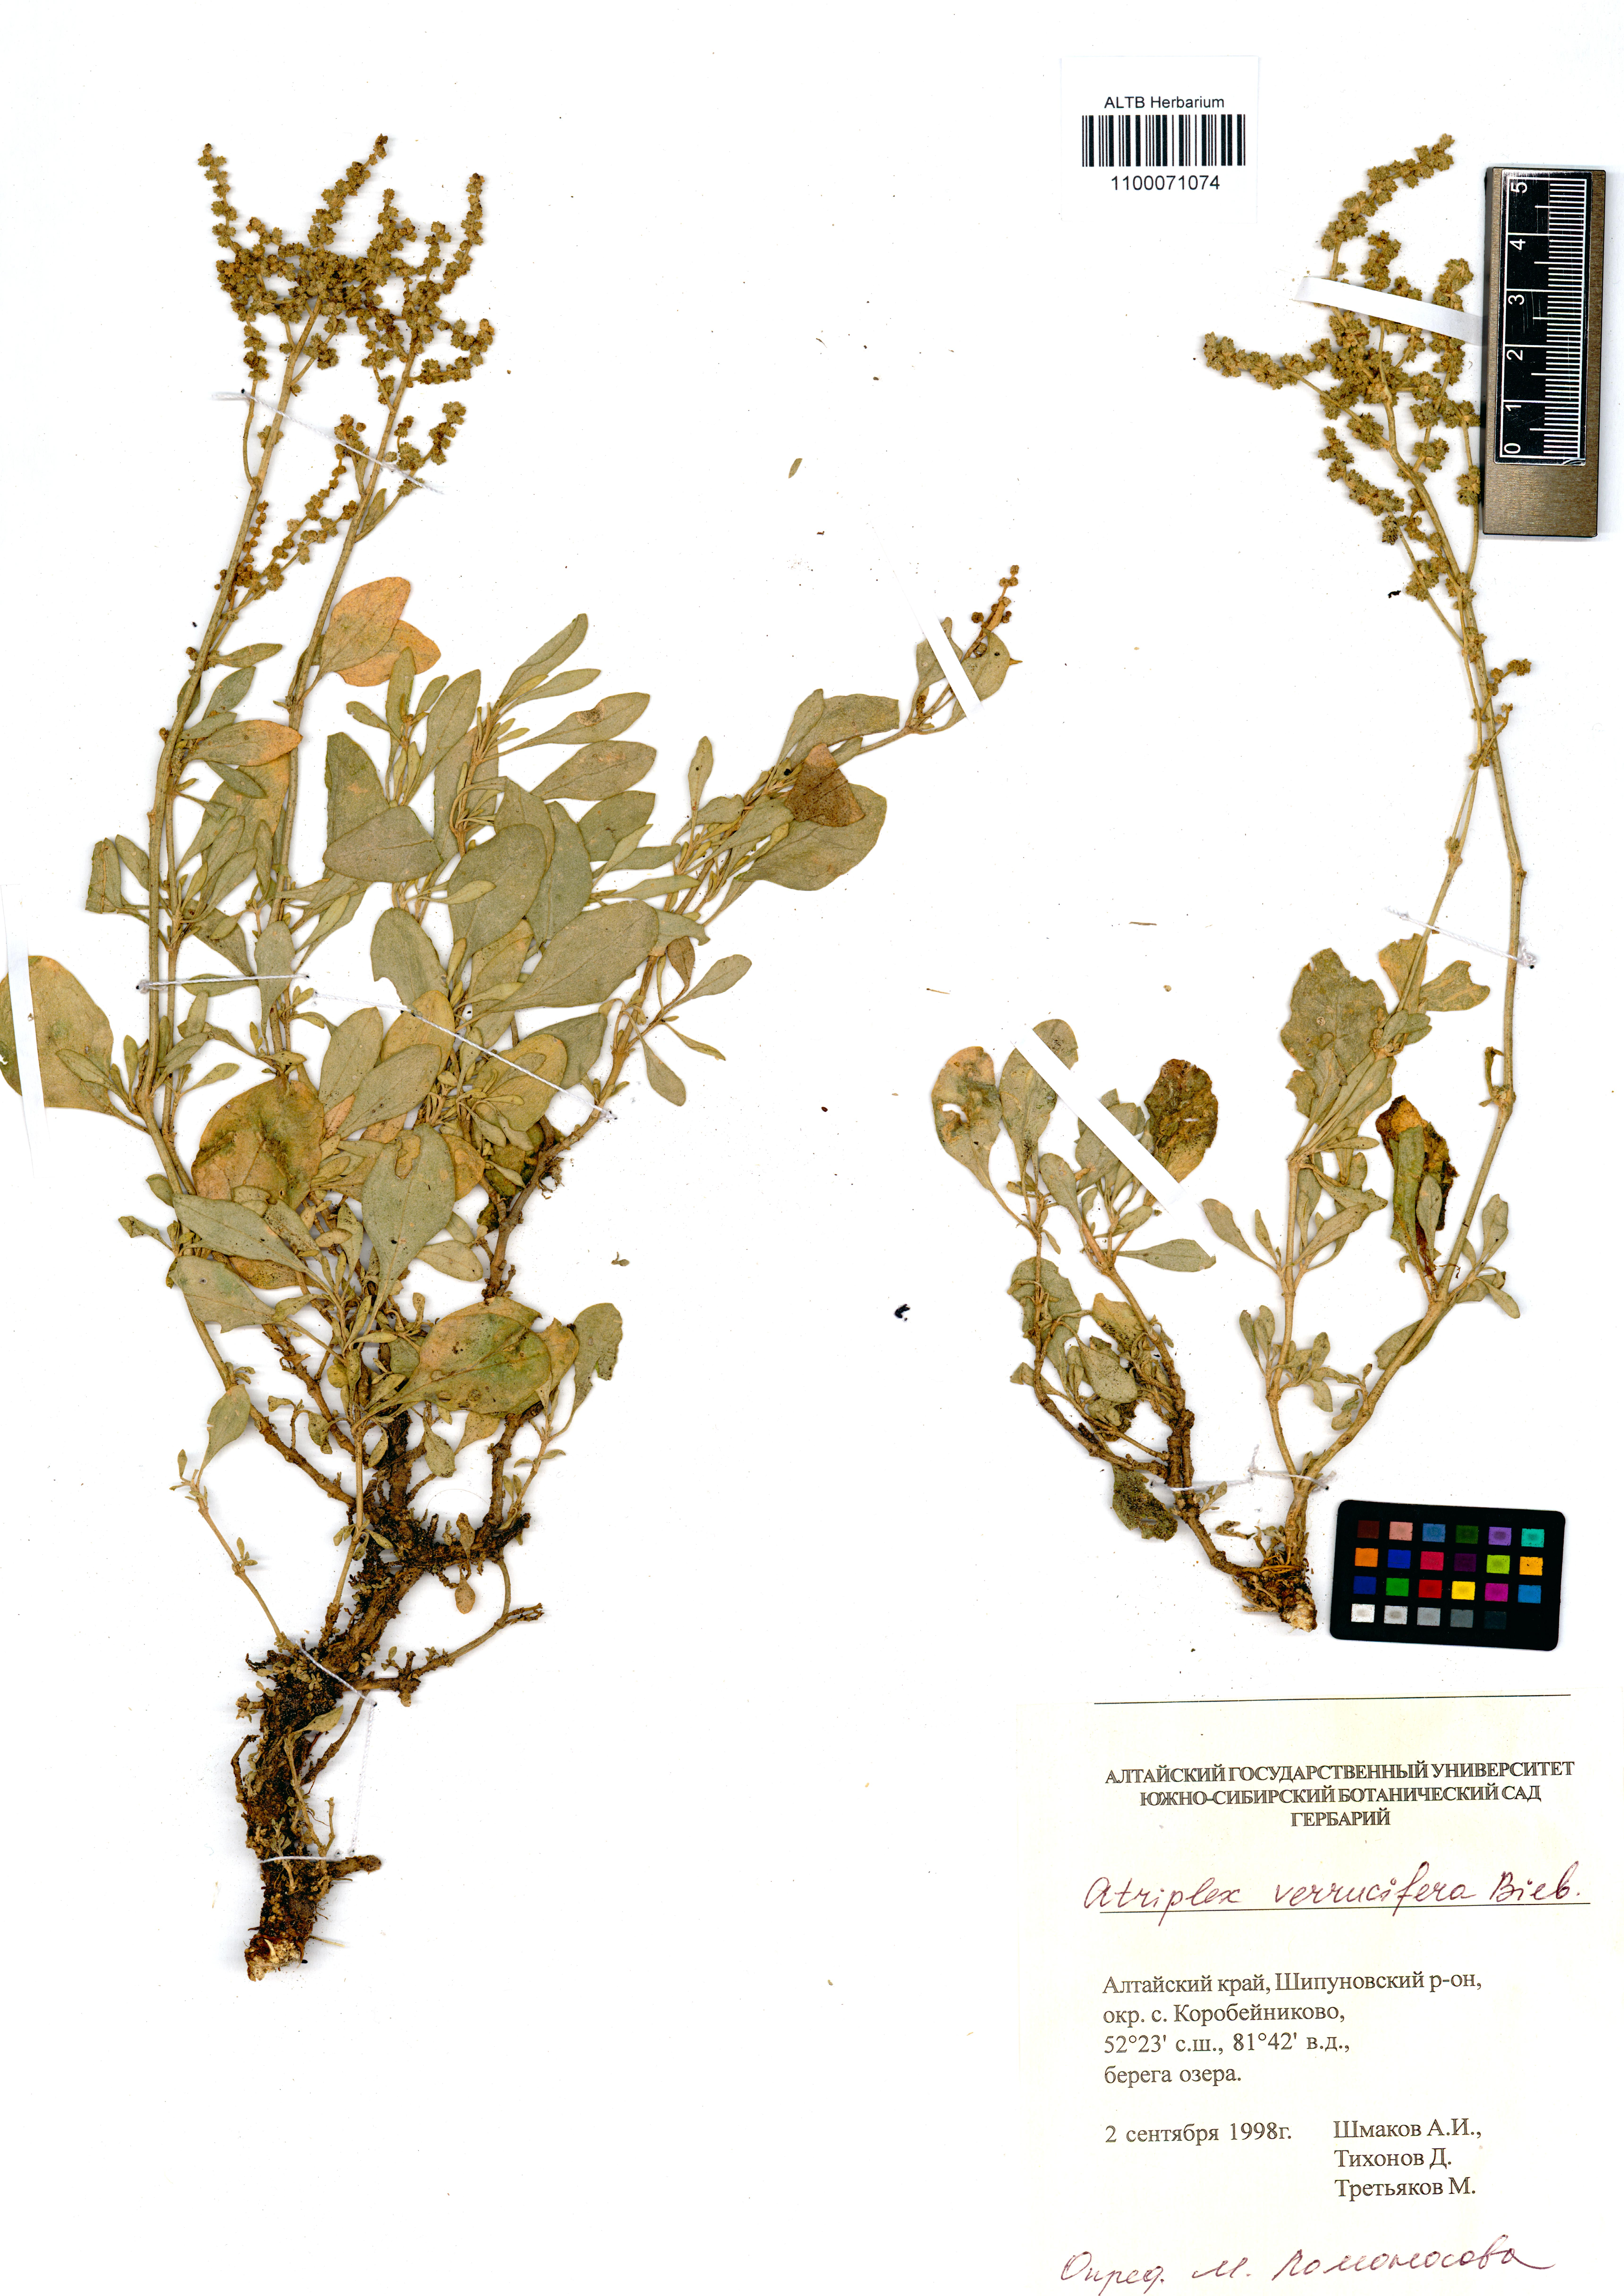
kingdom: Plantae
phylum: Tracheophyta
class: Magnoliopsida
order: Caryophyllales
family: Amaranthaceae
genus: Halimione
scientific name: Halimione verrucifera
